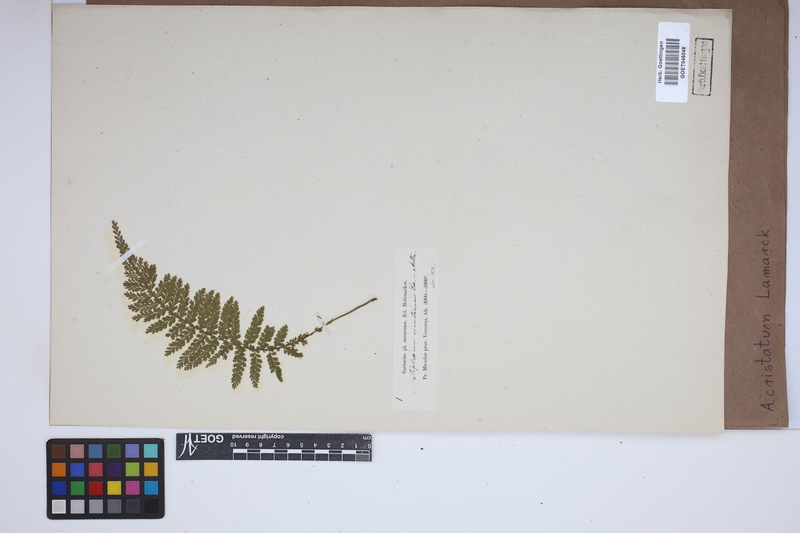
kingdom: Plantae
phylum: Tracheophyta
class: Polypodiopsida
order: Polypodiales
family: Aspleniaceae
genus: Asplenium
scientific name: Asplenium cristatum
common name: Parsley spleenwort
